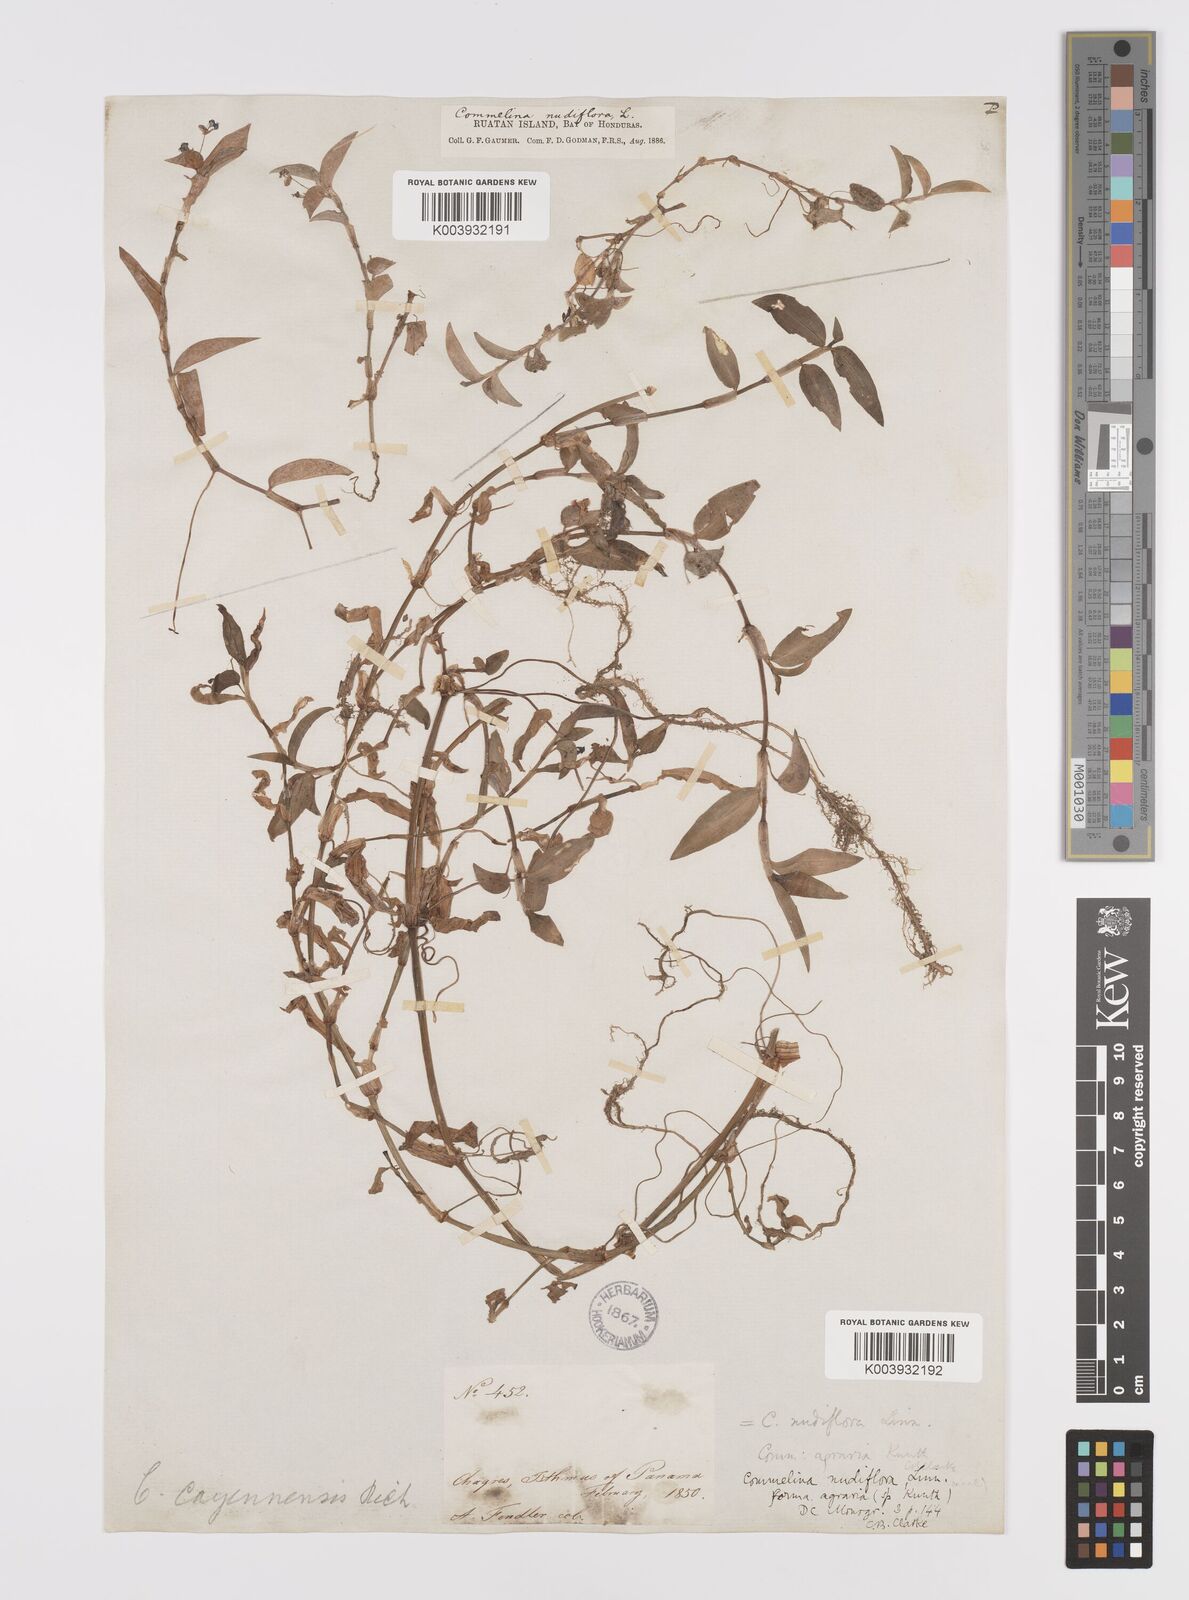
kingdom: Plantae
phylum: Tracheophyta
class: Liliopsida
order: Commelinales
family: Commelinaceae
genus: Commelina
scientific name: Commelina diffusa
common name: Climbing dayflower
